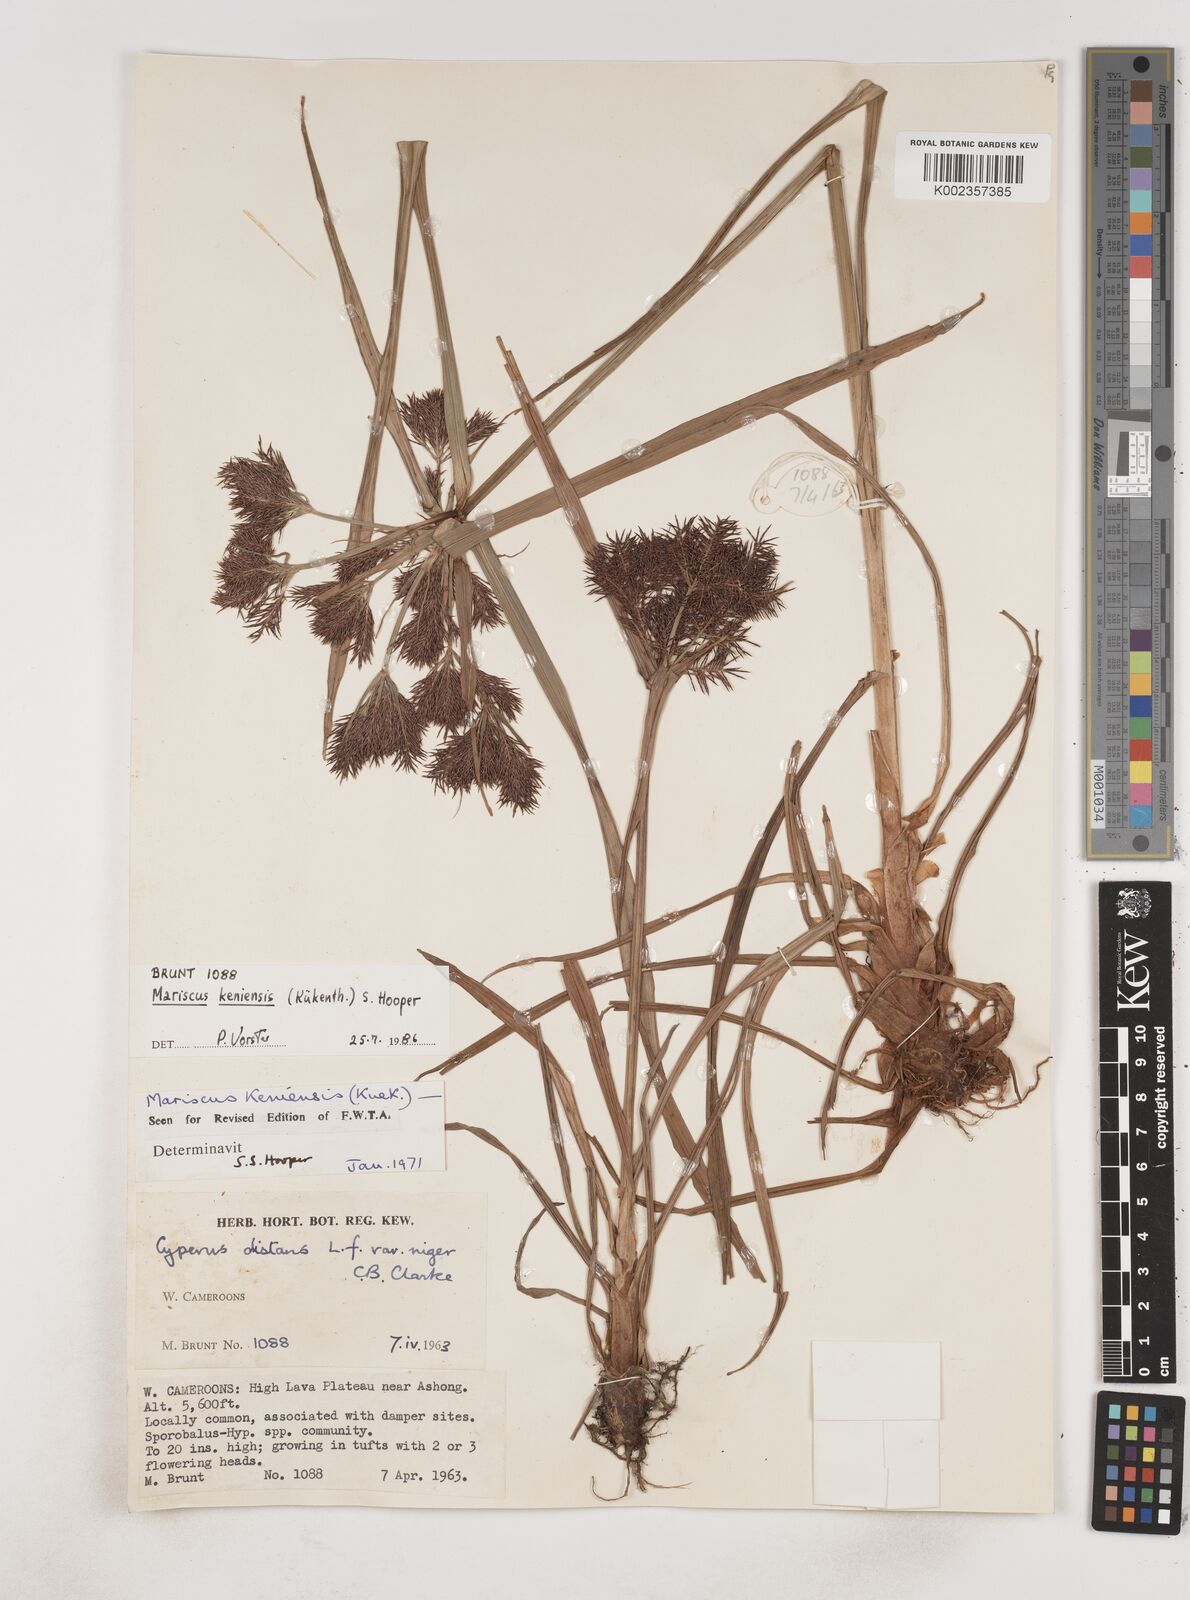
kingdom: Plantae
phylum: Tracheophyta
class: Liliopsida
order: Poales
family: Cyperaceae
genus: Cyperus
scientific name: Cyperus distans
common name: Slender cyperus
